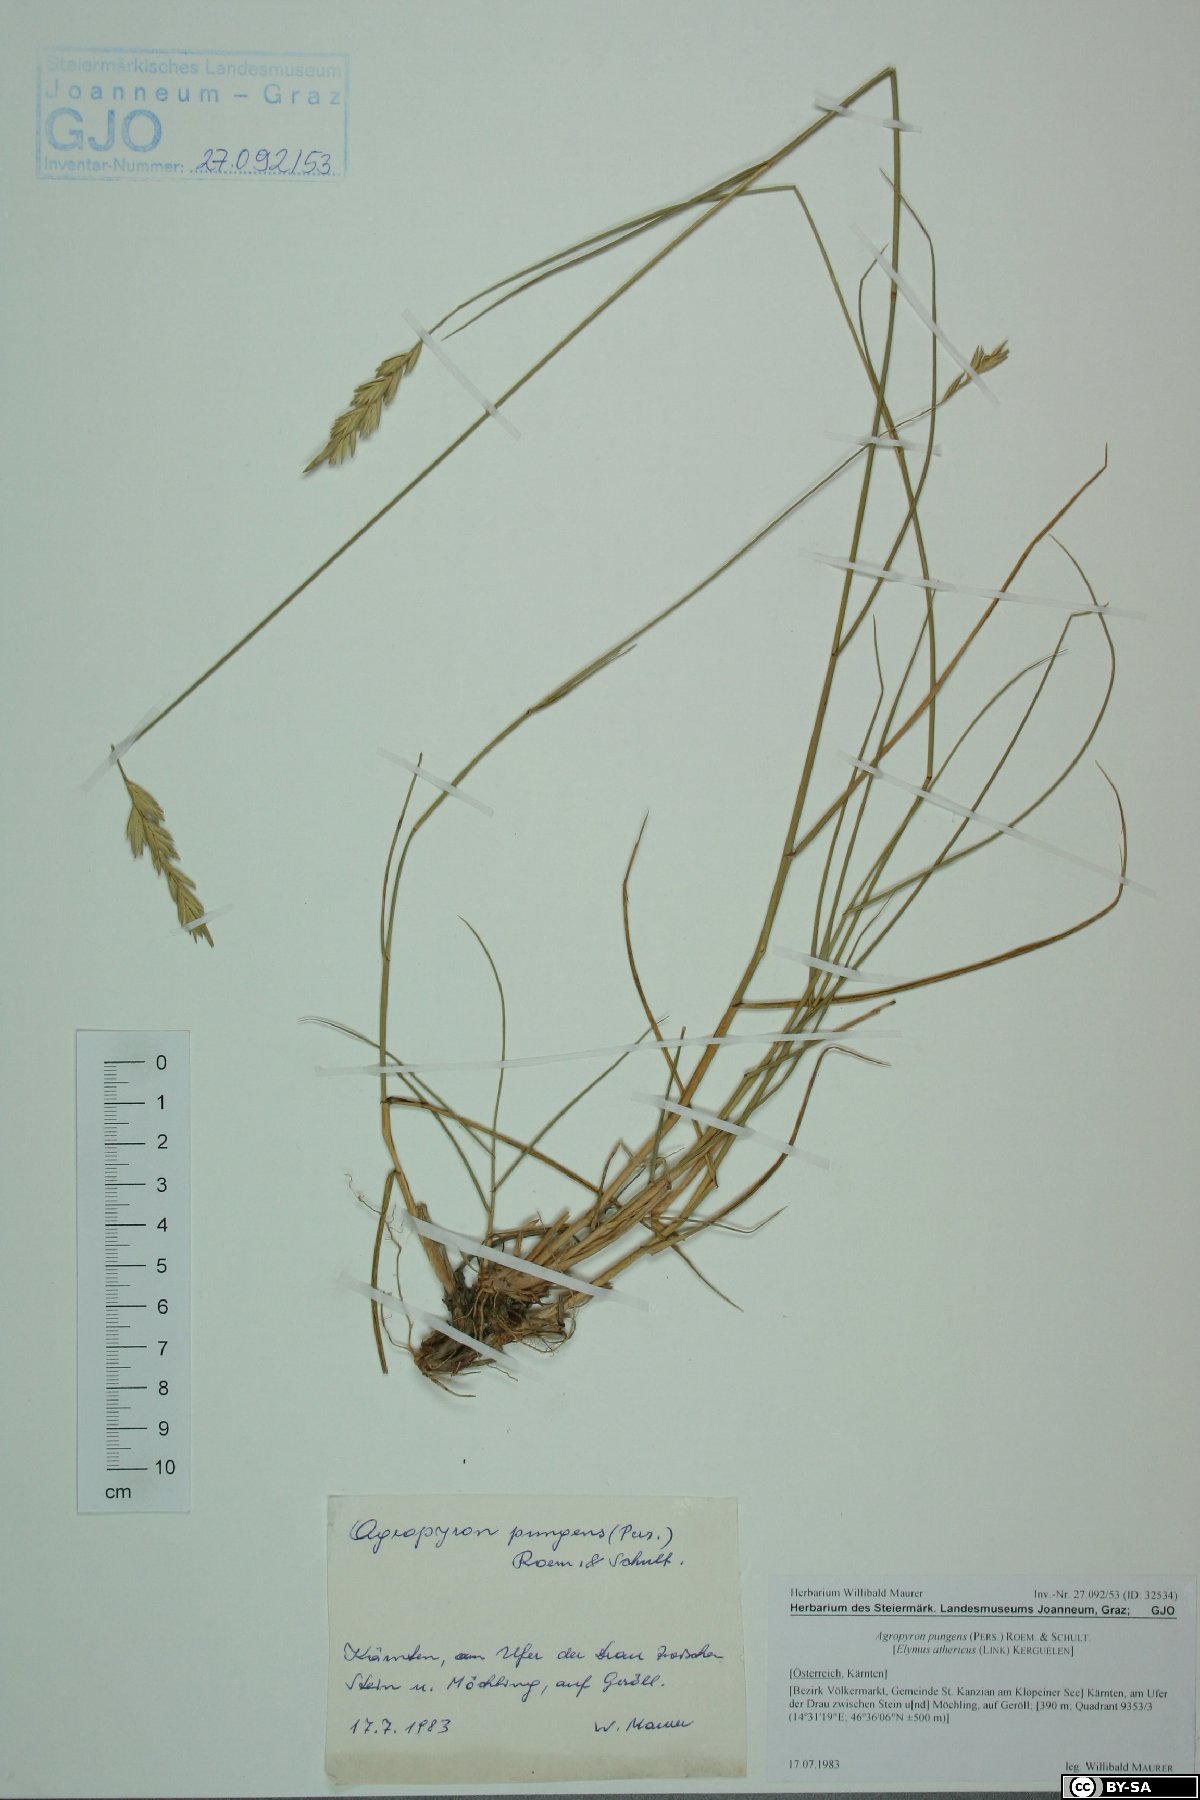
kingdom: Plantae
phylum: Tracheophyta
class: Liliopsida
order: Poales
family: Poaceae
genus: Elymus
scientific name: Elymus pungens
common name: Sea couch
